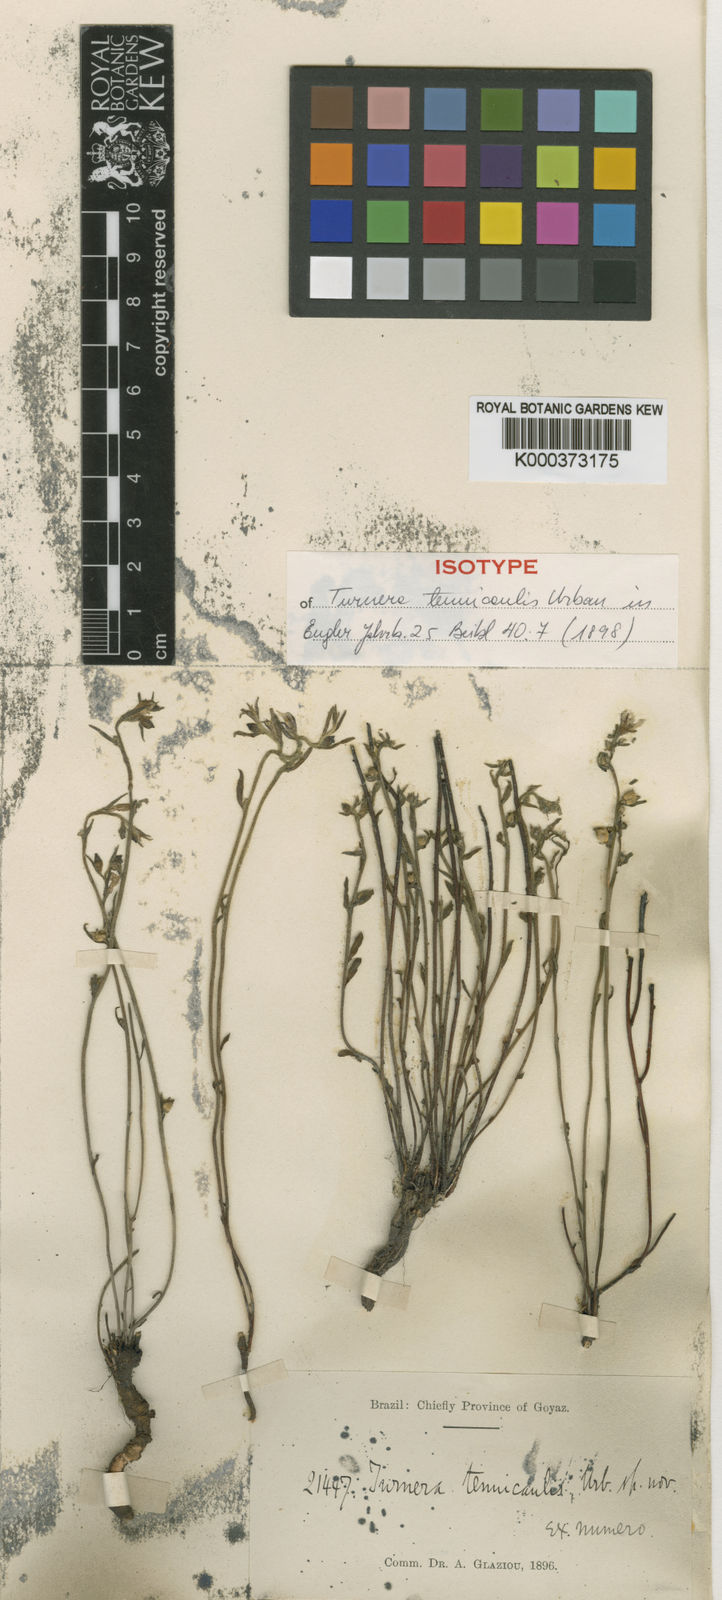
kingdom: Plantae
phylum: Tracheophyta
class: Magnoliopsida
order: Malpighiales
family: Turneraceae
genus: Turnera
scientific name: Turnera tenuicaulis
